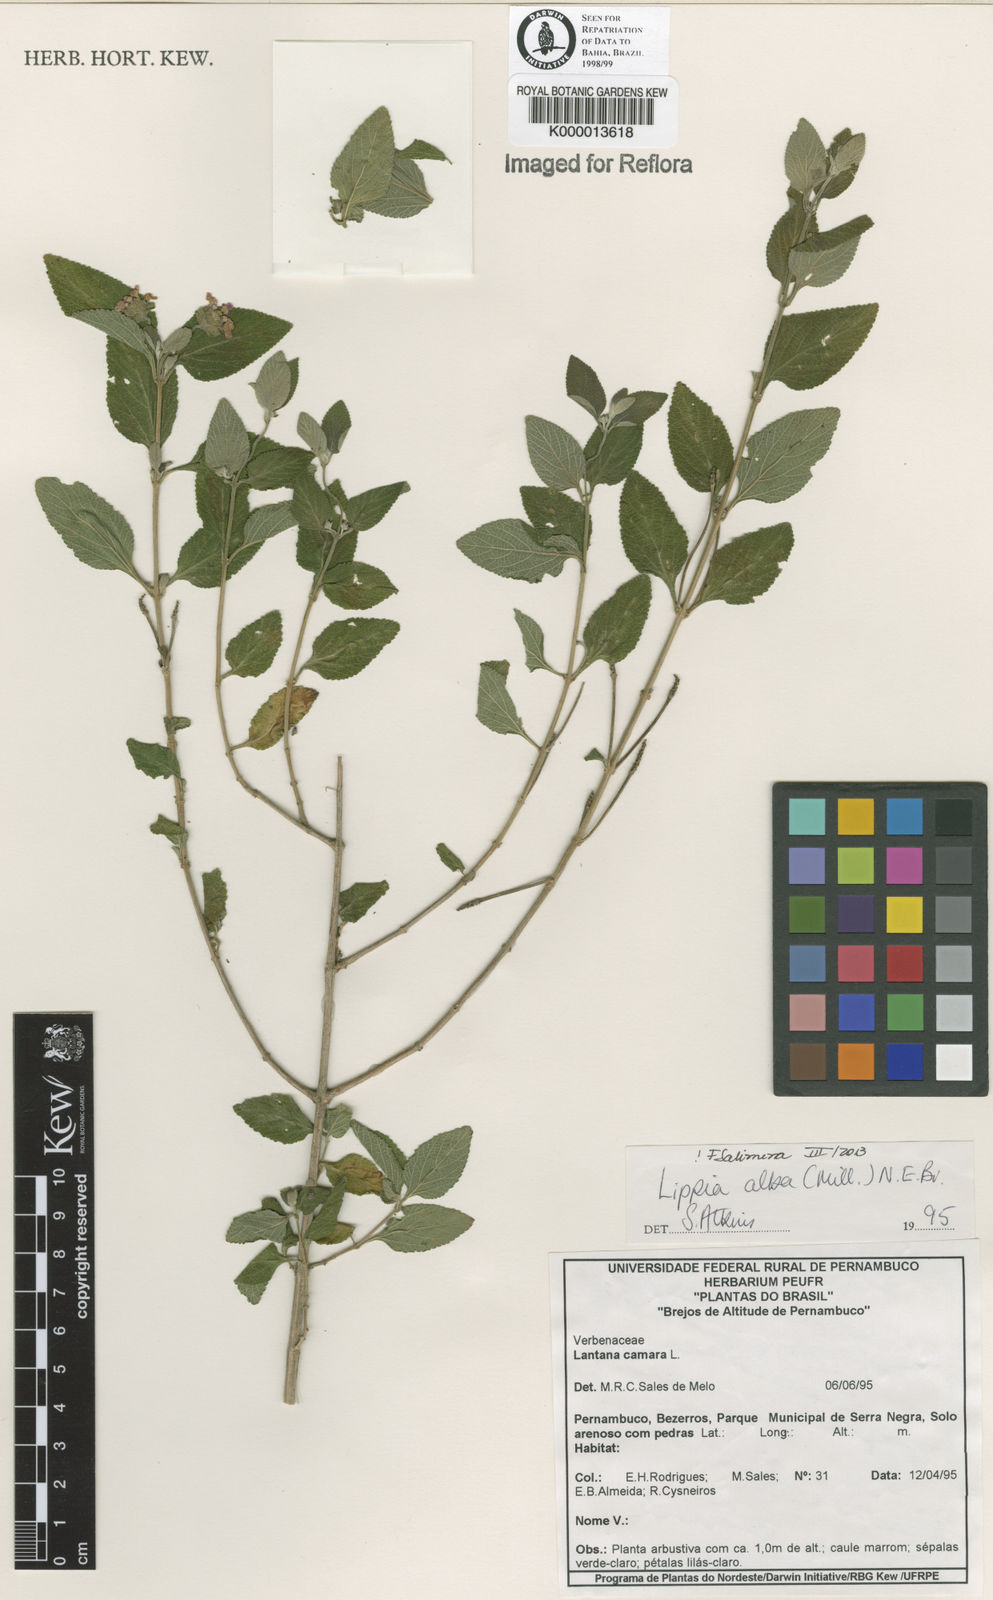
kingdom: Plantae
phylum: Tracheophyta
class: Magnoliopsida
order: Lamiales
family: Verbenaceae
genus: Lippia
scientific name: Lippia
